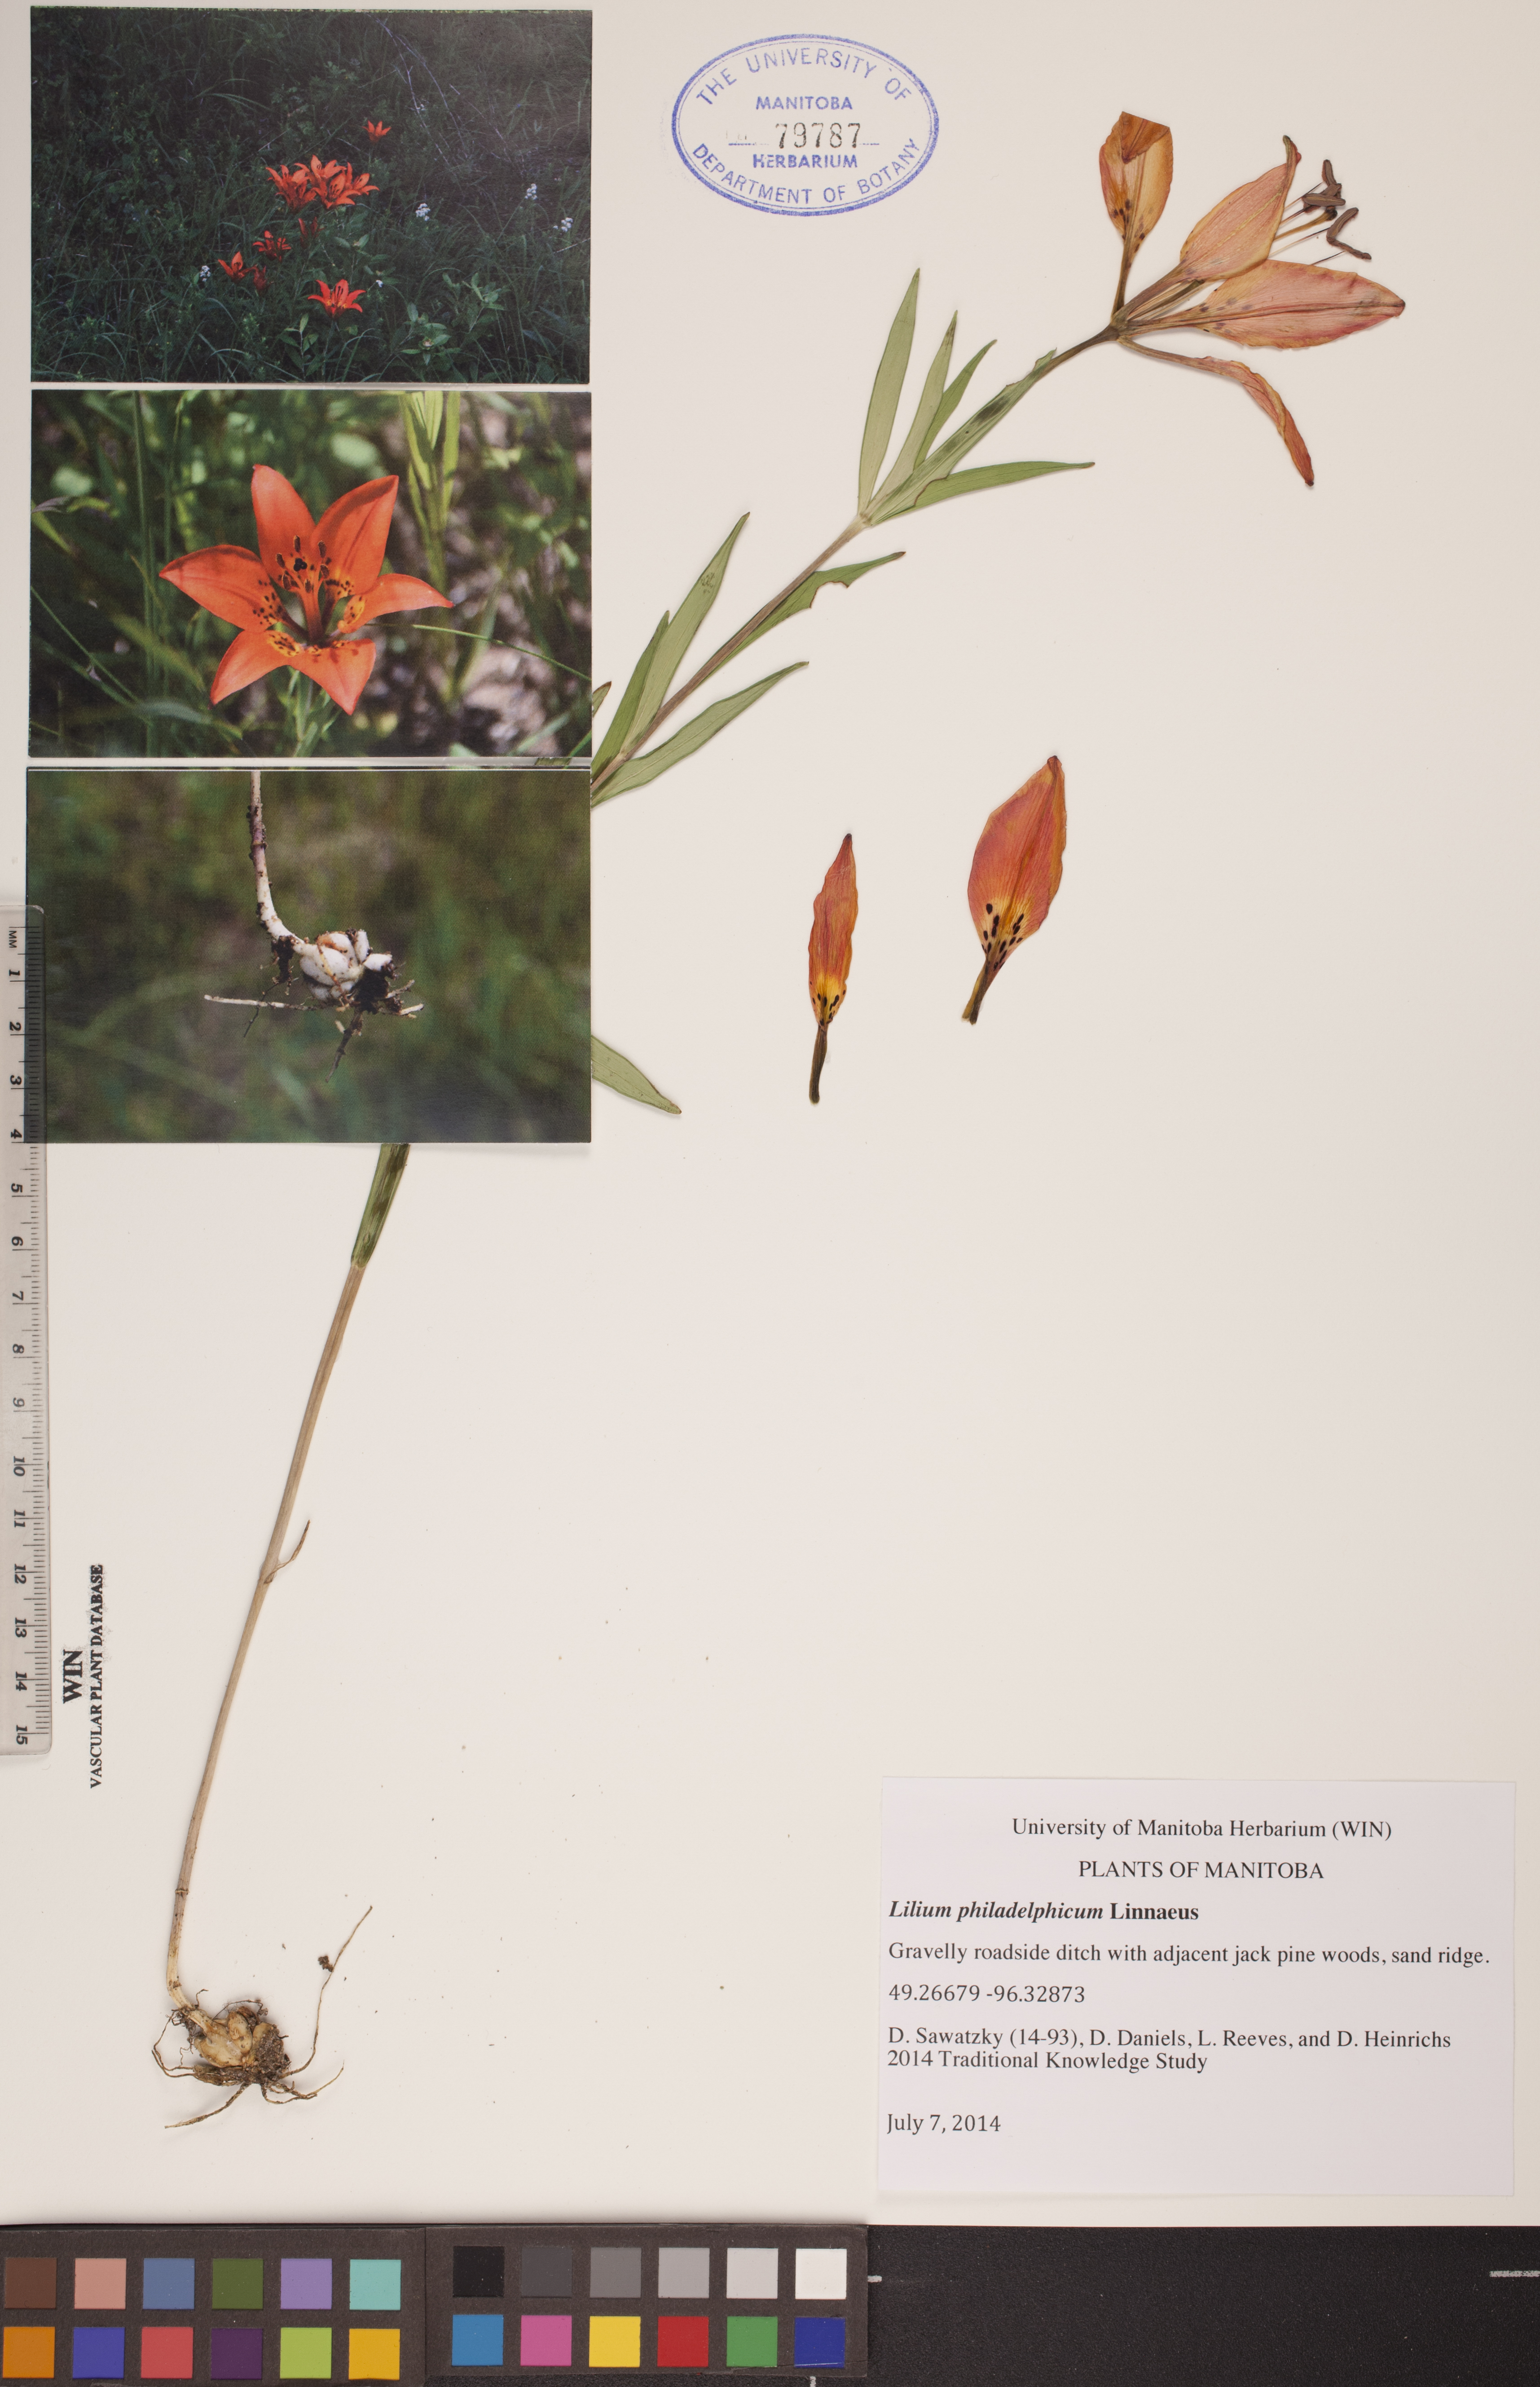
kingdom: Plantae
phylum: Tracheophyta
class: Liliopsida
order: Liliales
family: Liliaceae
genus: Lilium
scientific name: Lilium philadelphicum
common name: Red lily
